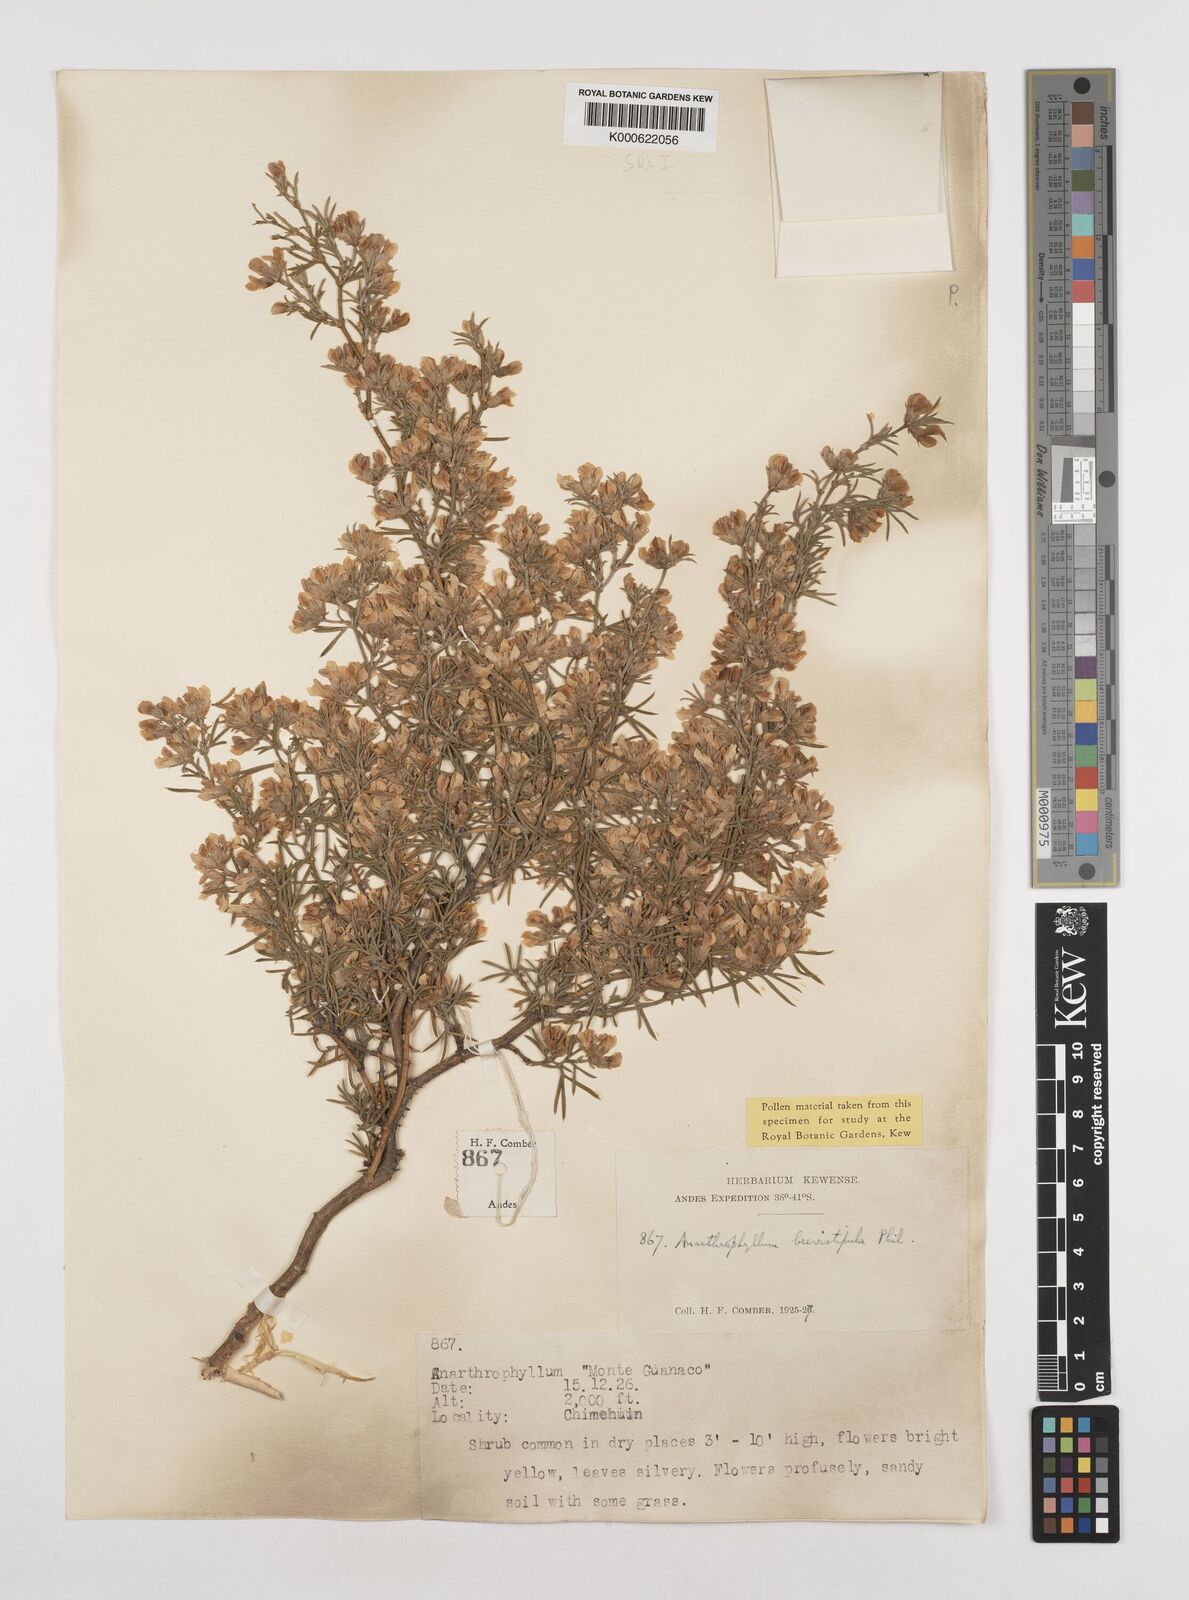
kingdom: Plantae
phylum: Tracheophyta
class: Magnoliopsida
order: Fabales
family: Fabaceae
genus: Anarthrophyllum
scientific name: Anarthrophyllum rigidum
